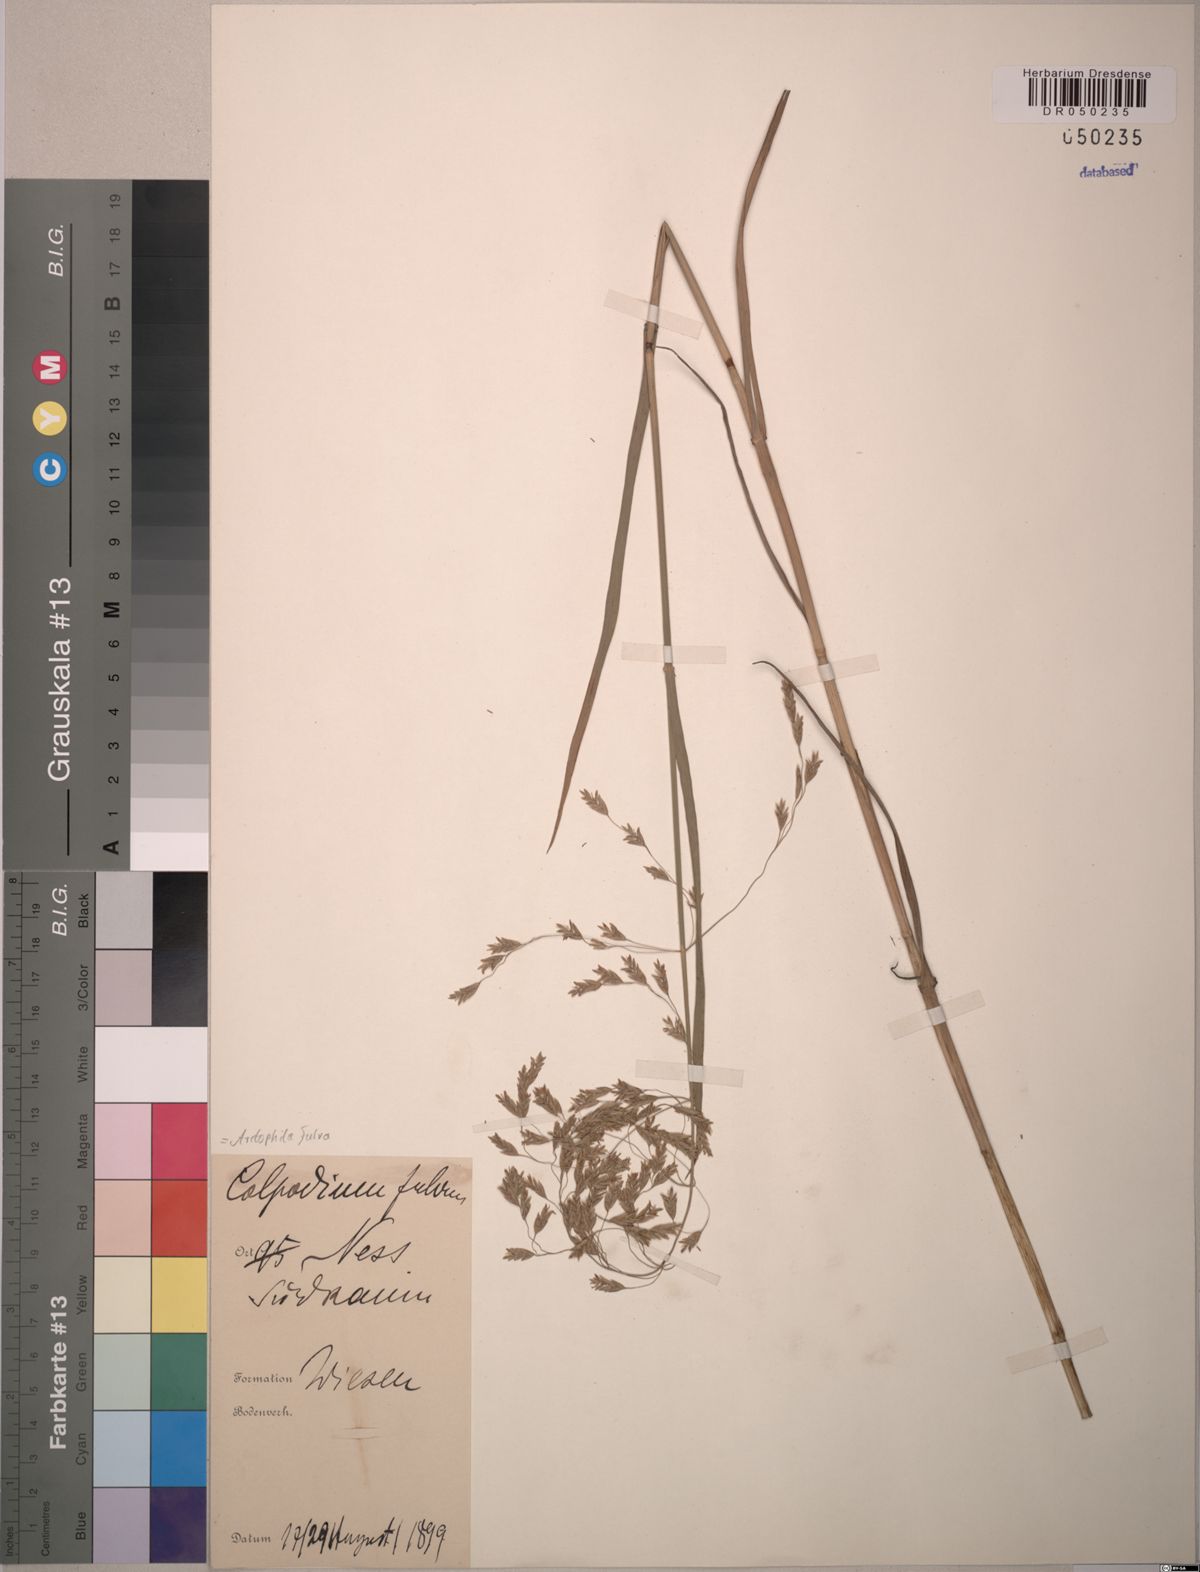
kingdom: Plantae
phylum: Tracheophyta
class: Liliopsida
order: Poales
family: Poaceae
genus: Dupontia
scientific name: Dupontia fulva
